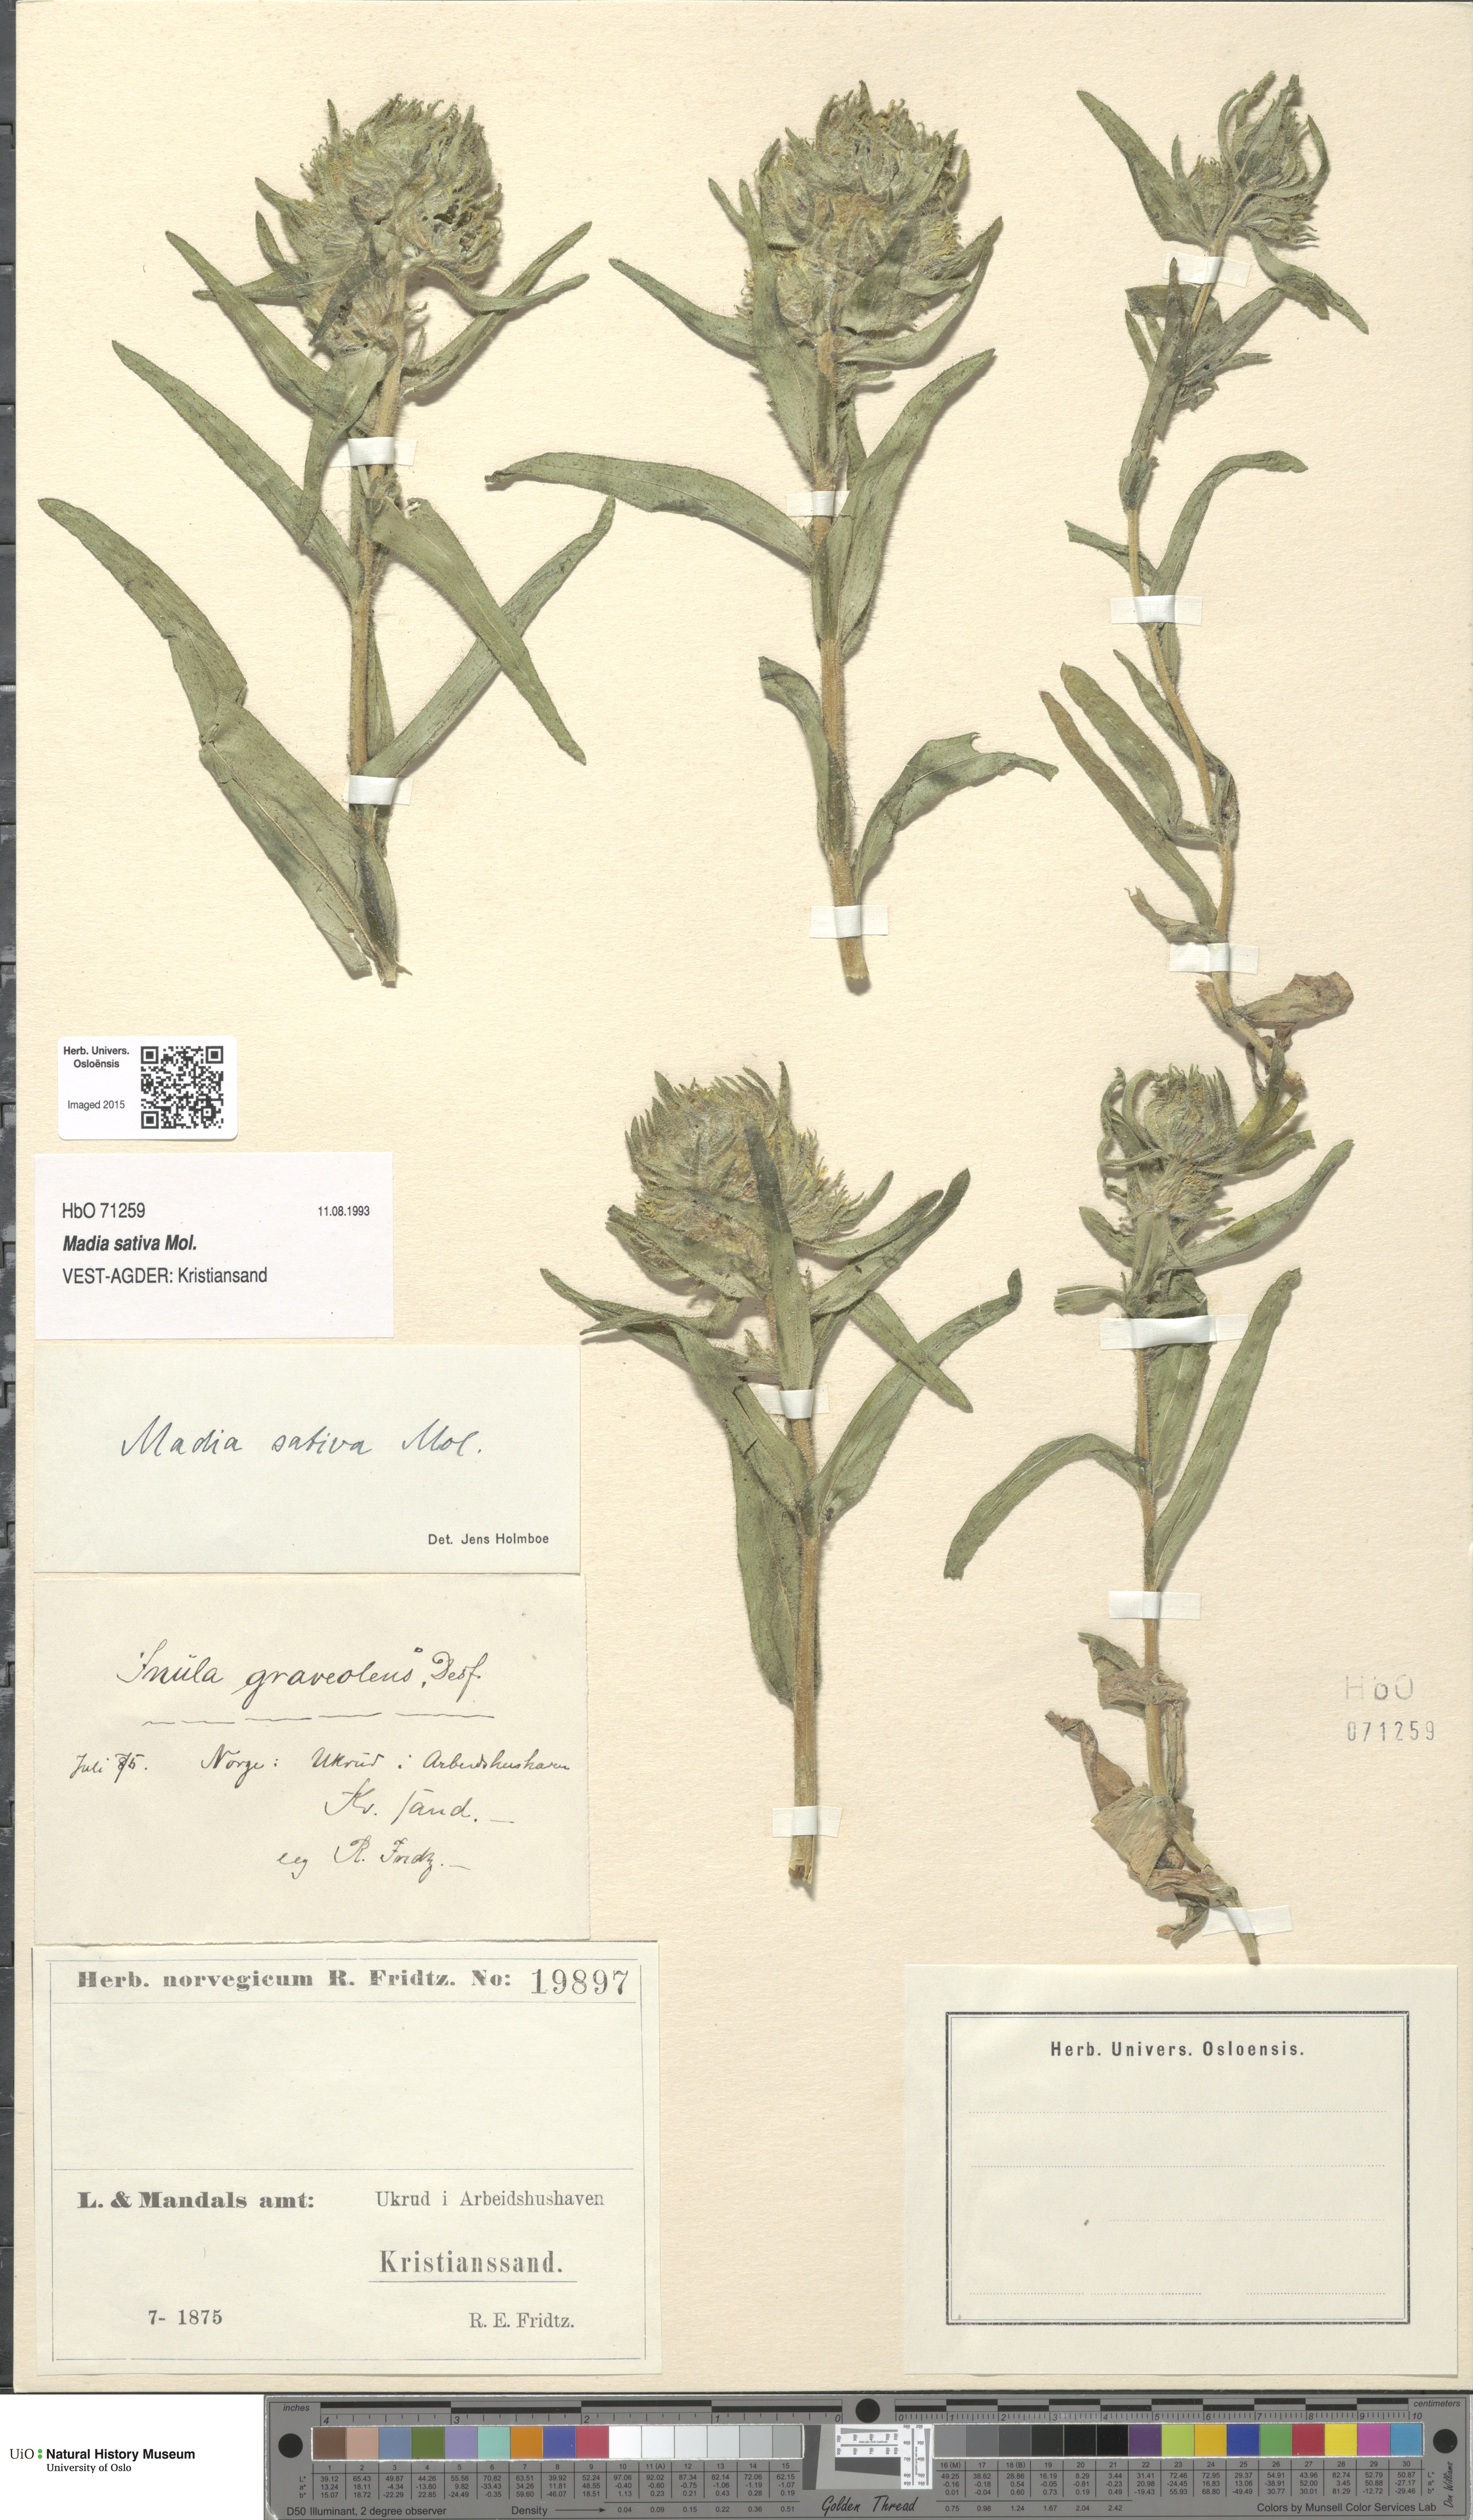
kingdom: Plantae
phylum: Tracheophyta
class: Magnoliopsida
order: Asterales
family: Asteraceae
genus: Madia
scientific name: Madia sativa
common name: Coast tarweed
